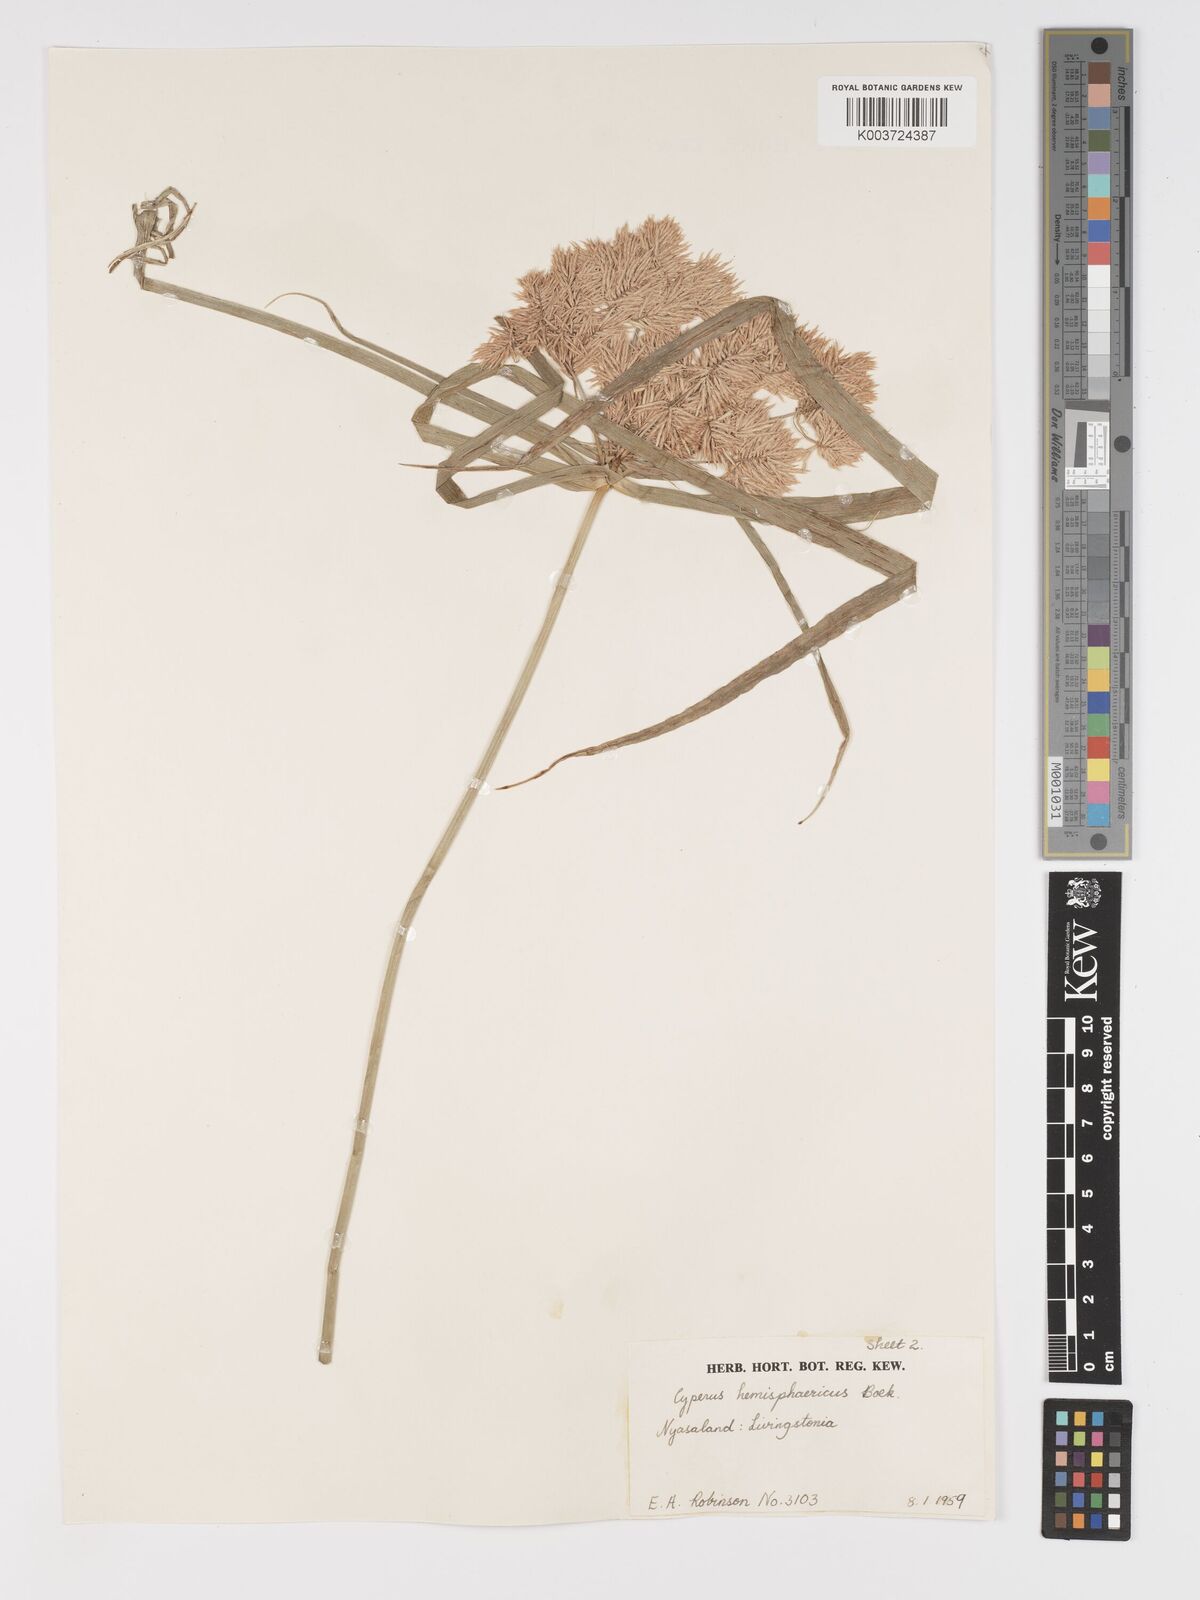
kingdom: Plantae
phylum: Tracheophyta
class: Liliopsida
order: Poales
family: Cyperaceae
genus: Cyperus
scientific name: Cyperus hemisphaericus
